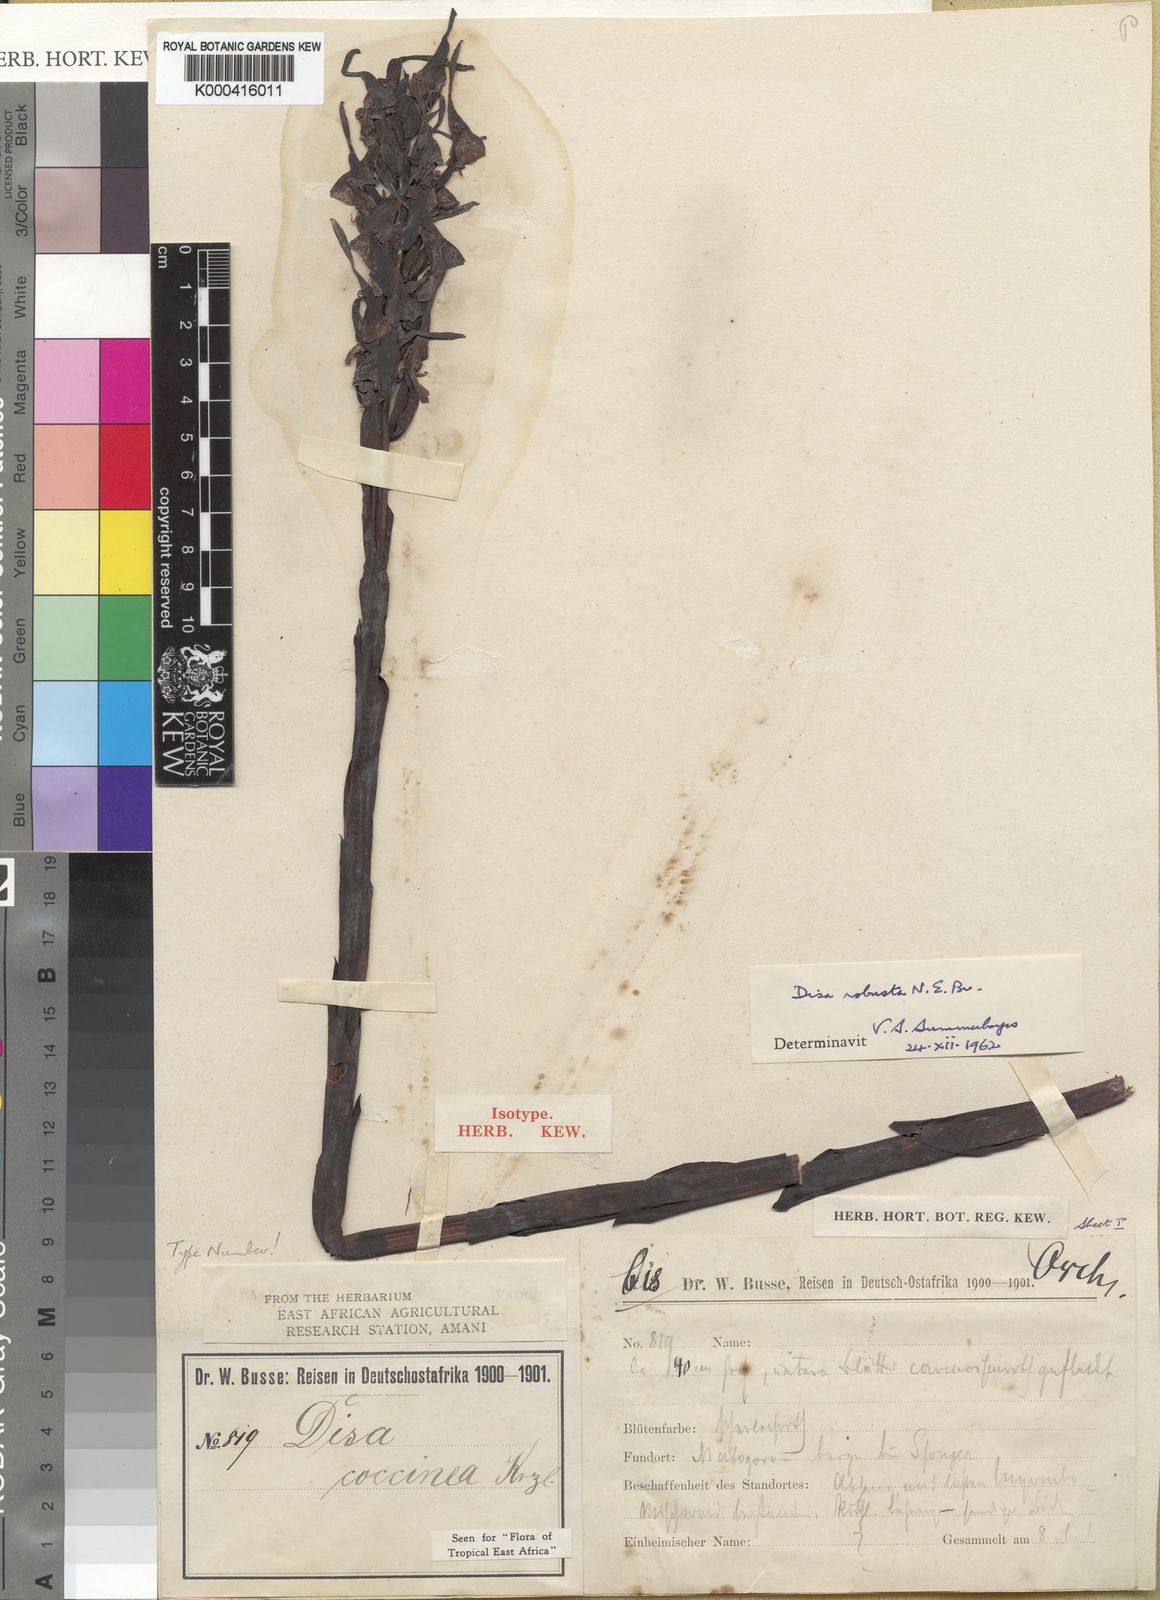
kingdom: Plantae
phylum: Tracheophyta
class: Liliopsida
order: Asparagales
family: Orchidaceae
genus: Disa
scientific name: Disa robusta
